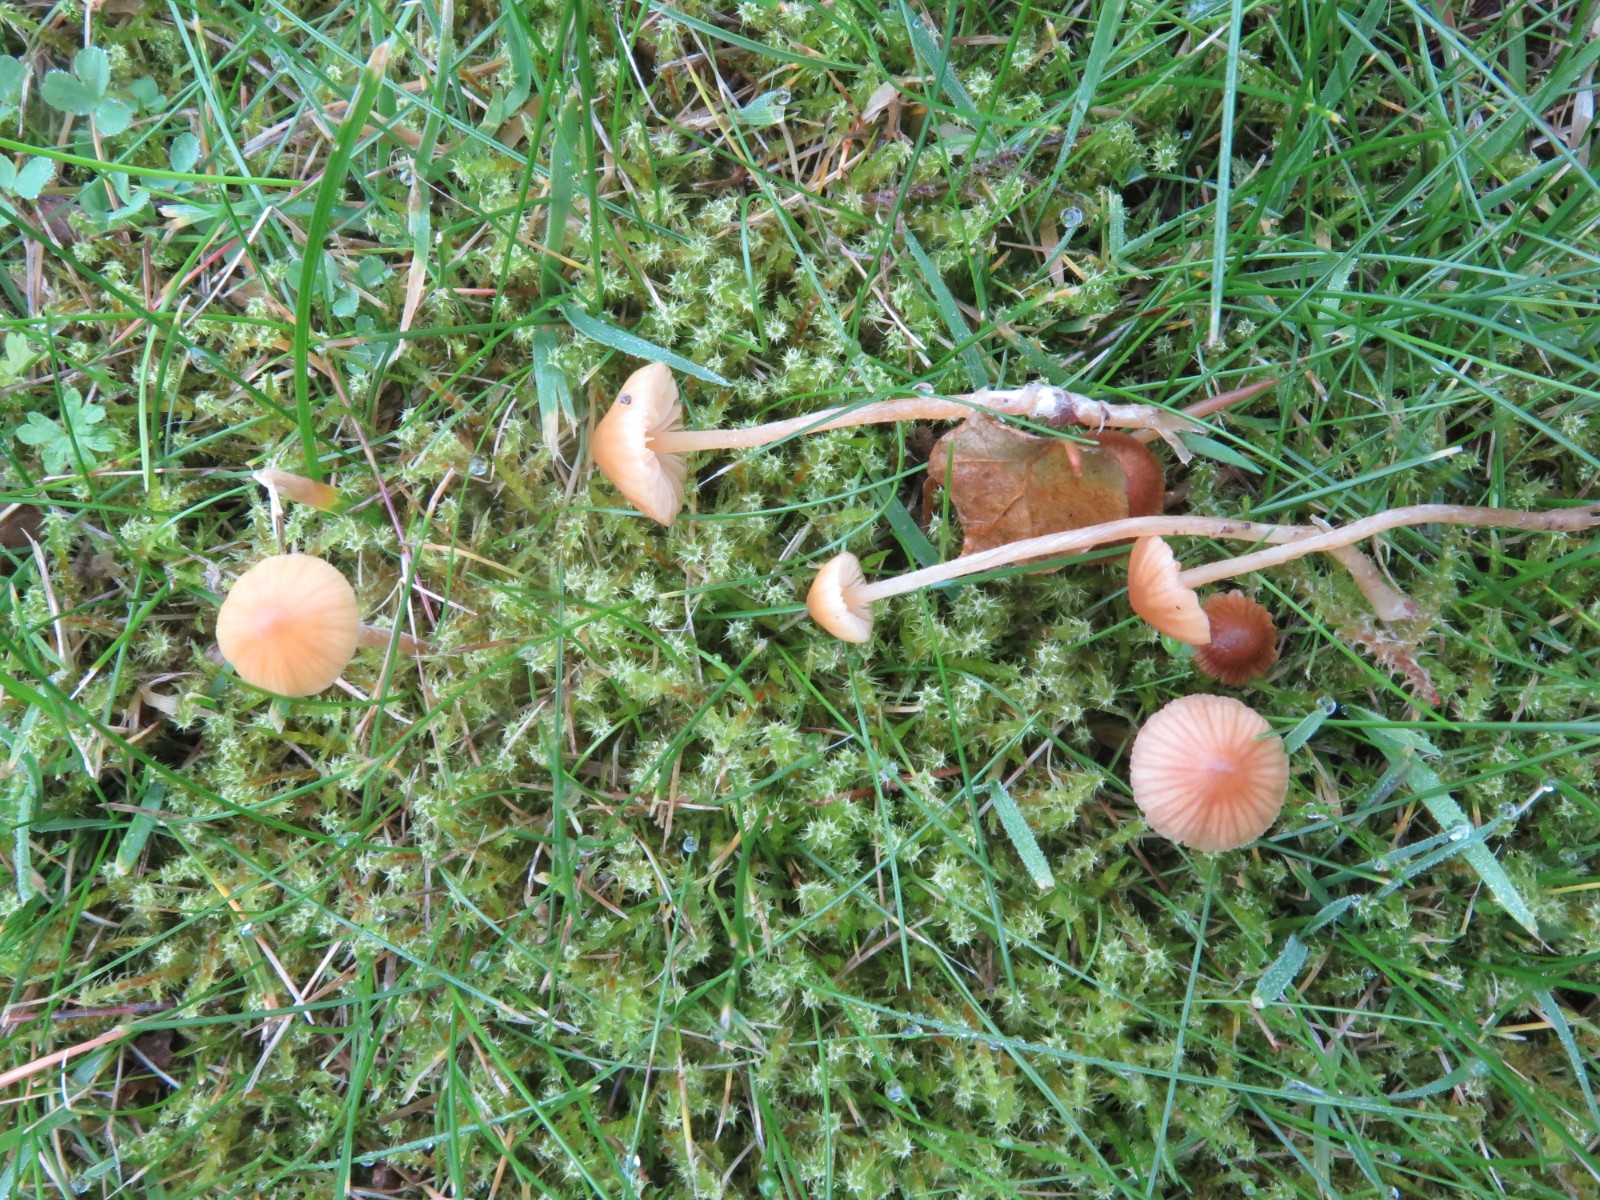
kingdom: Fungi
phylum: Basidiomycota
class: Agaricomycetes
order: Agaricales
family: Hymenogastraceae
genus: Galerina
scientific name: Galerina clavata
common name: kær-hjelmhat
